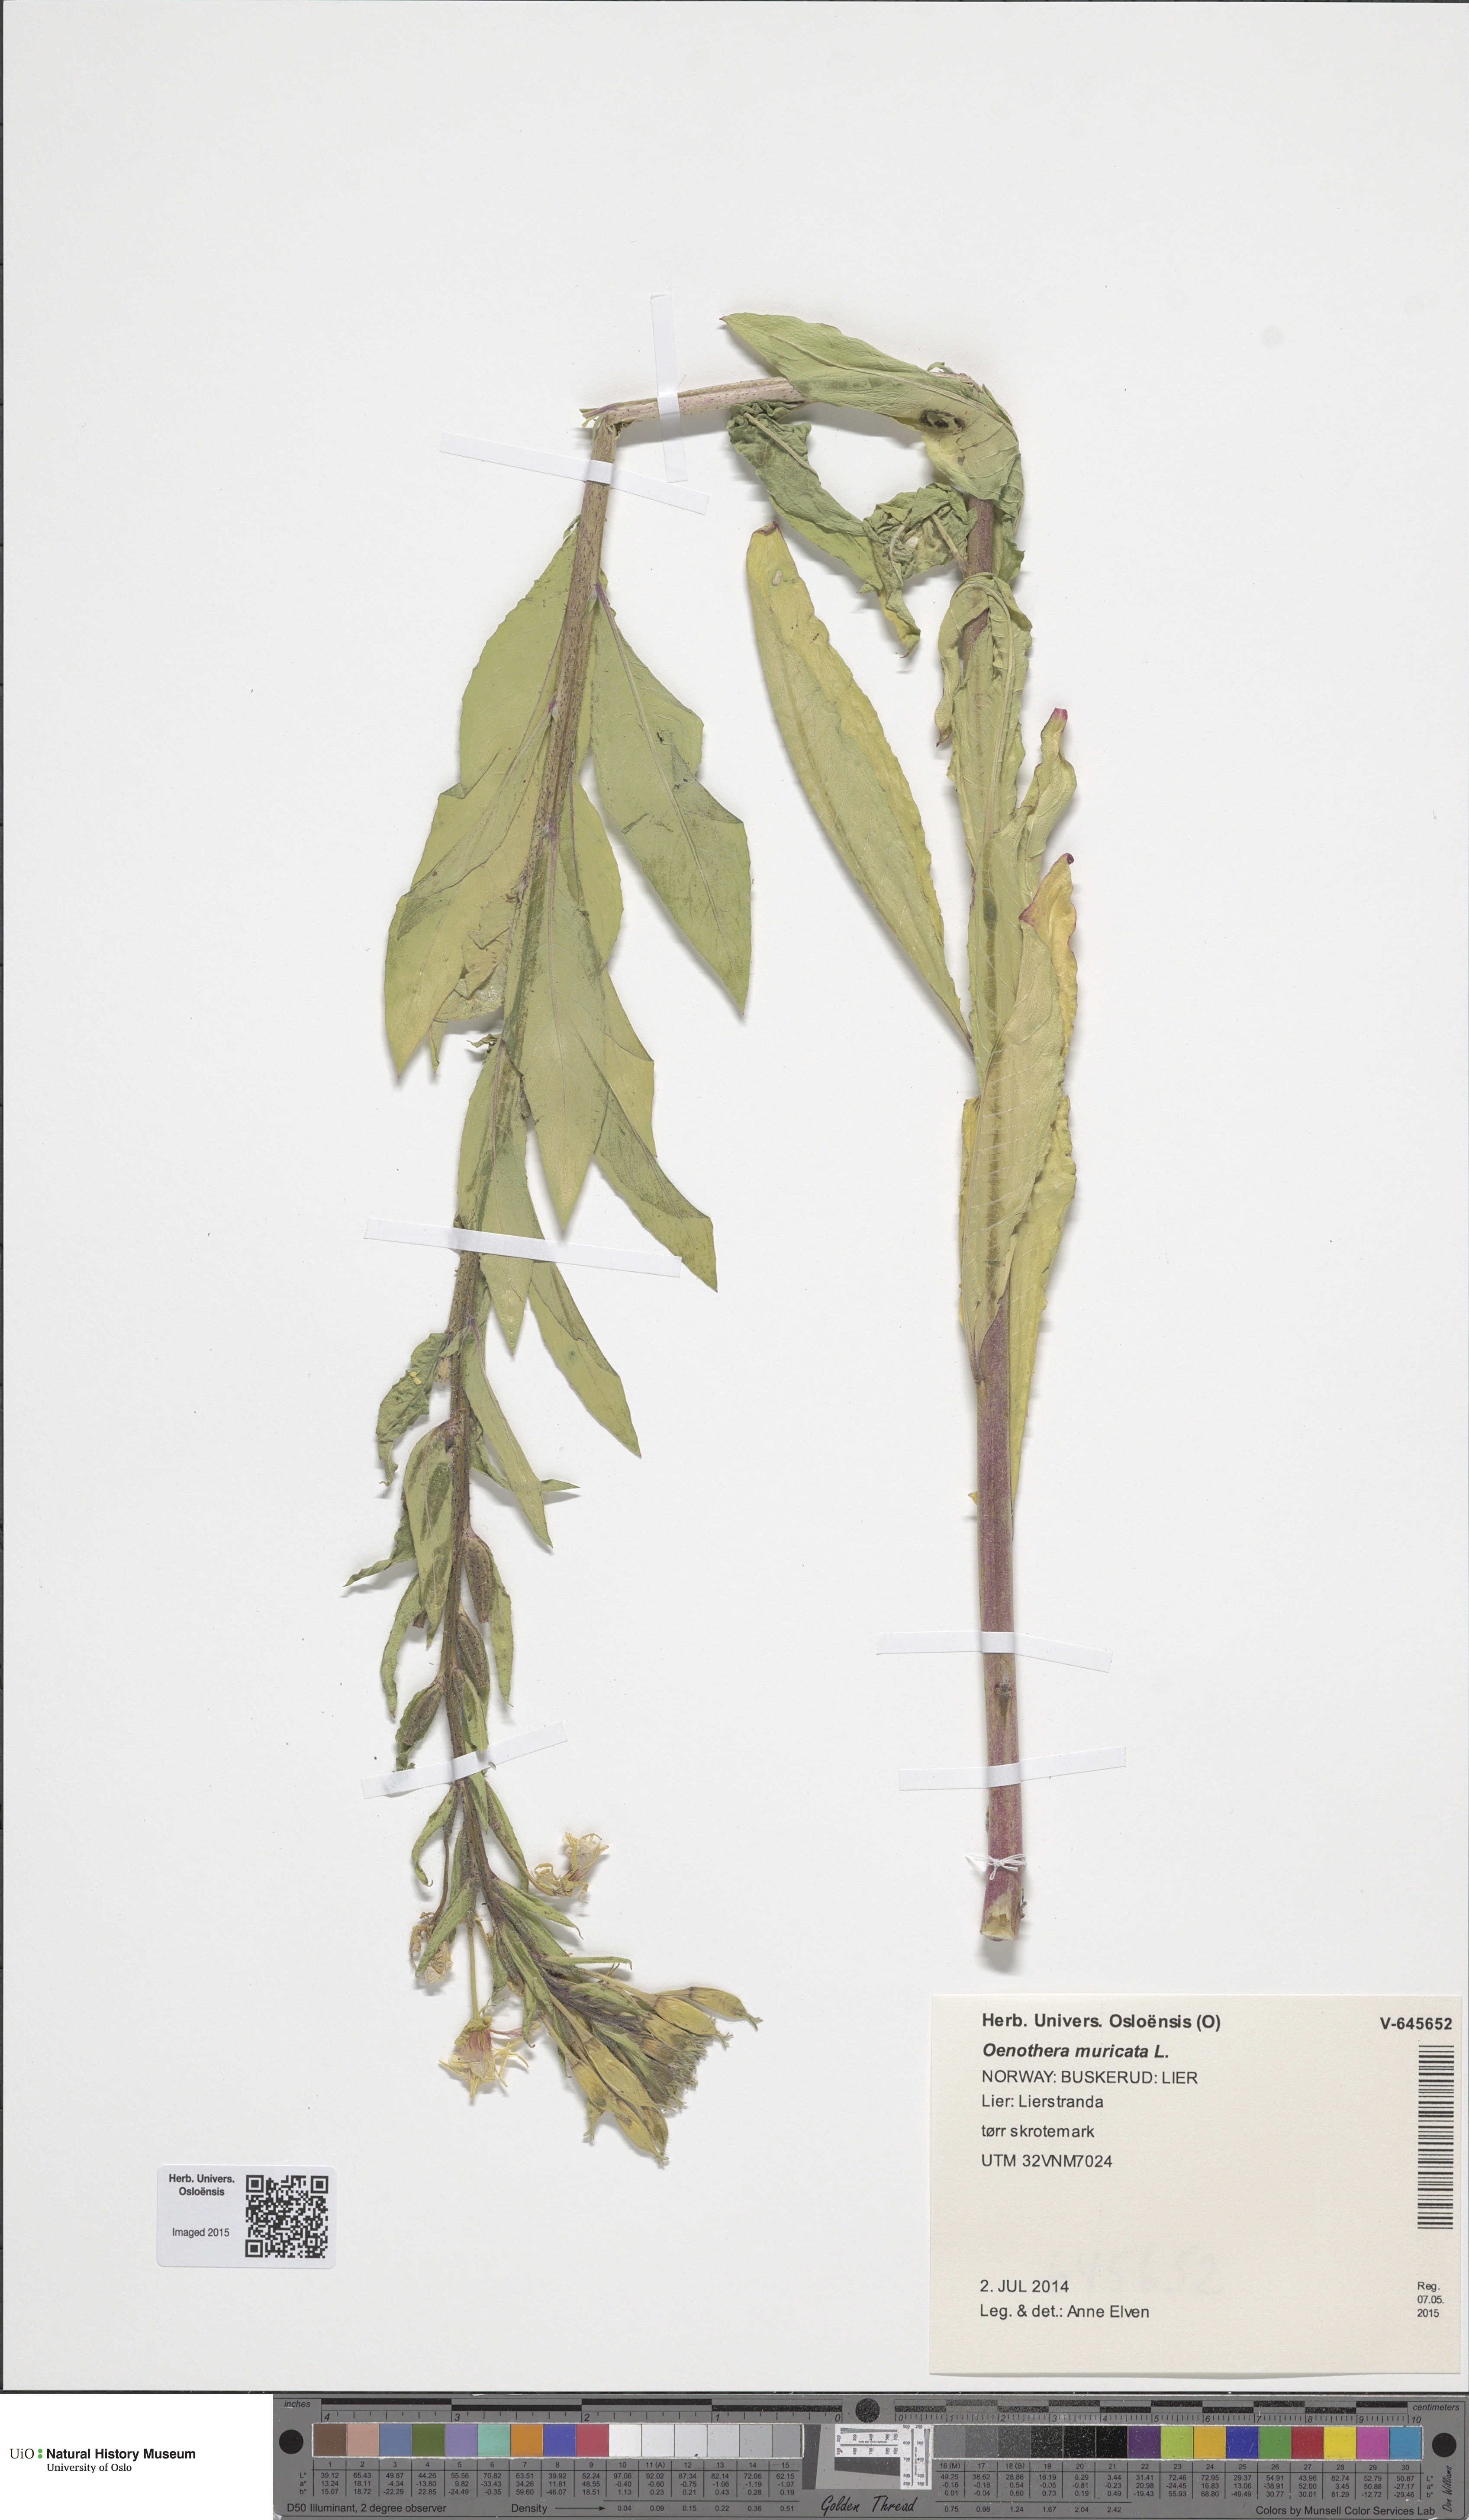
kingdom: Plantae
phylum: Tracheophyta
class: Magnoliopsida
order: Myrtales
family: Onagraceae
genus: Oenothera
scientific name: Oenothera biennis
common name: Common evening-primrose
